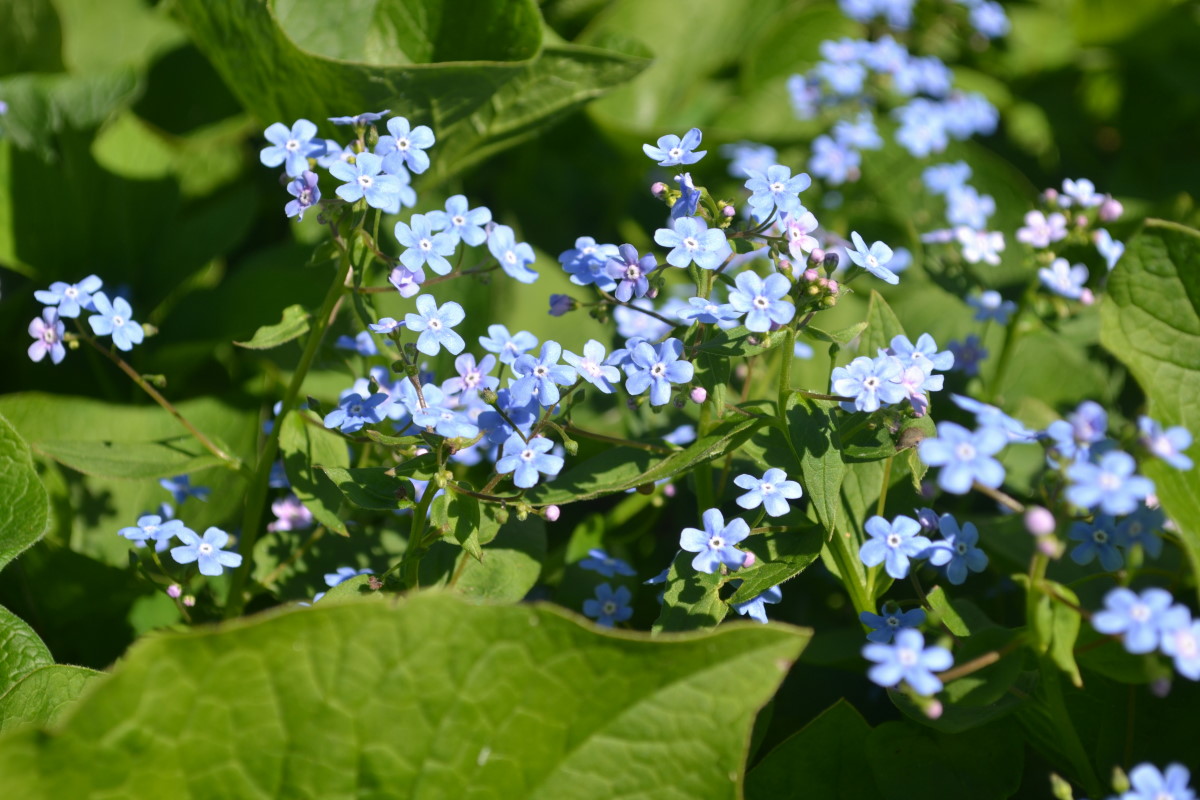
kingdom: Plantae
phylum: Tracheophyta
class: Magnoliopsida
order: Boraginales
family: Boraginaceae
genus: Brunnera
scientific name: Brunnera sibirica
